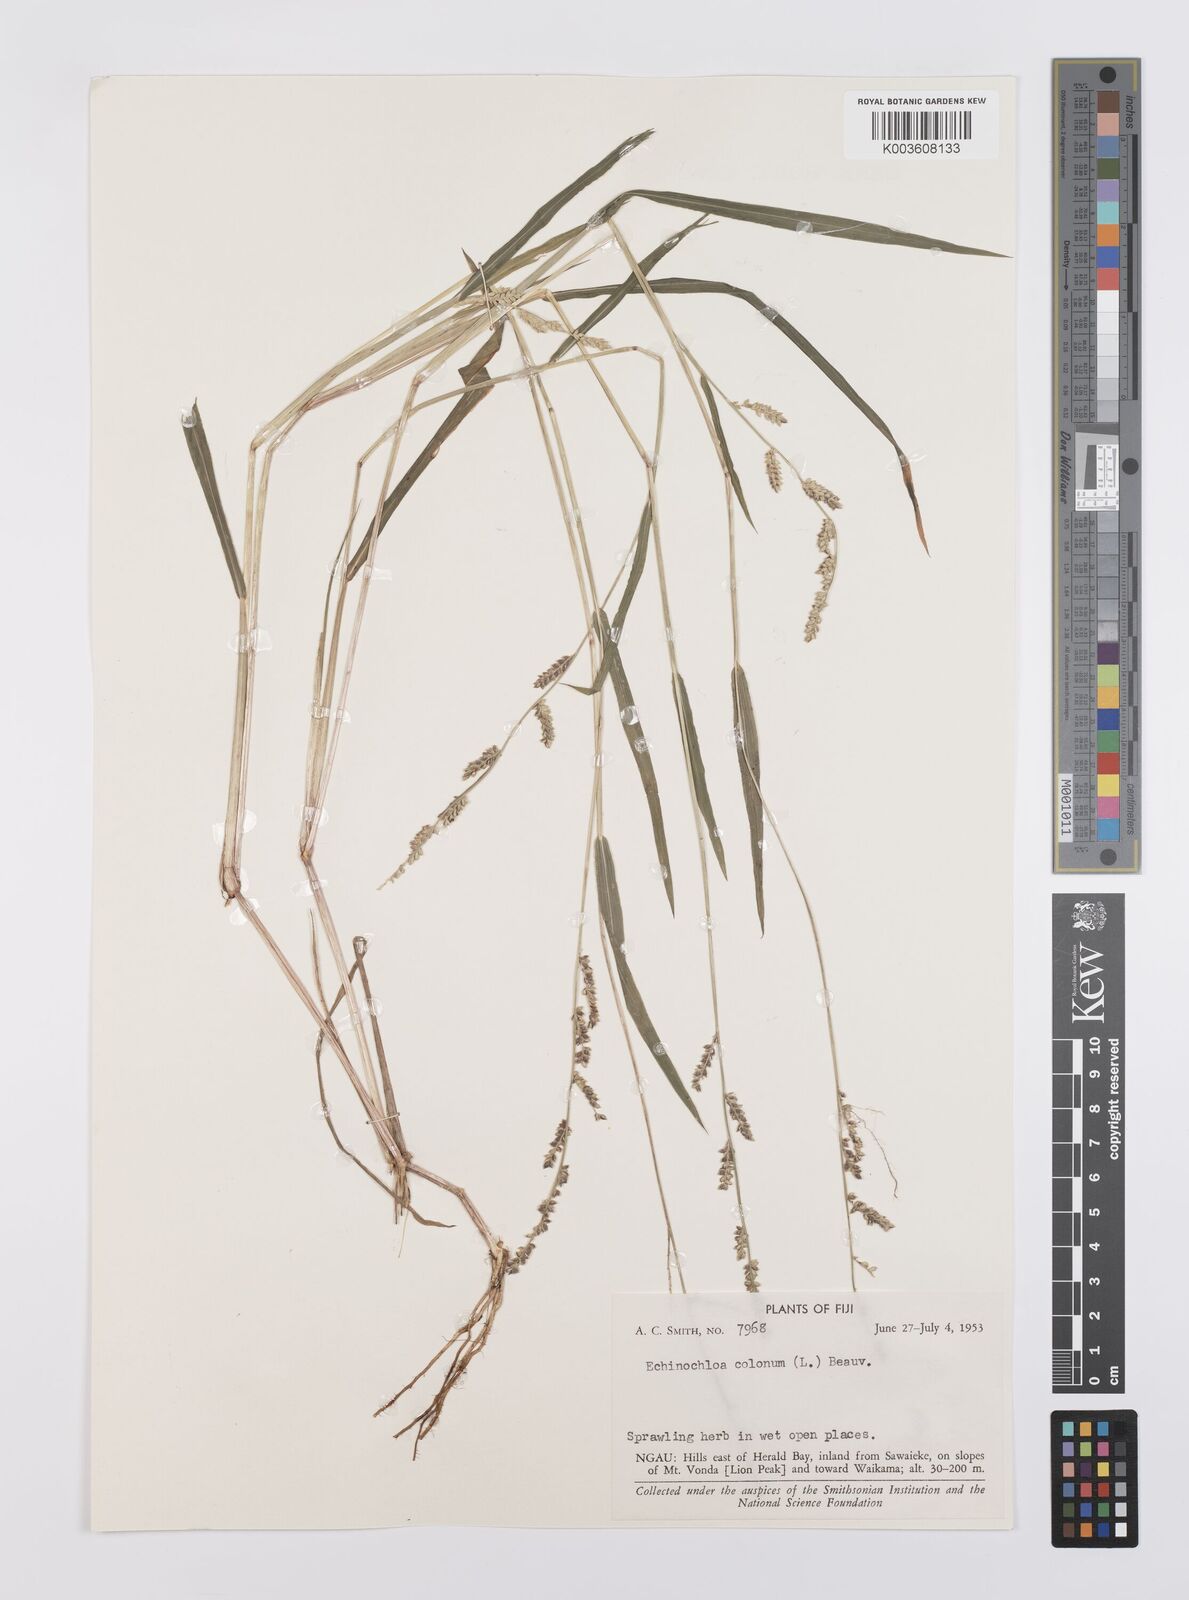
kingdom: Plantae
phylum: Tracheophyta
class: Liliopsida
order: Poales
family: Poaceae
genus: Echinochloa
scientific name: Echinochloa colonum
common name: Jungle rice
